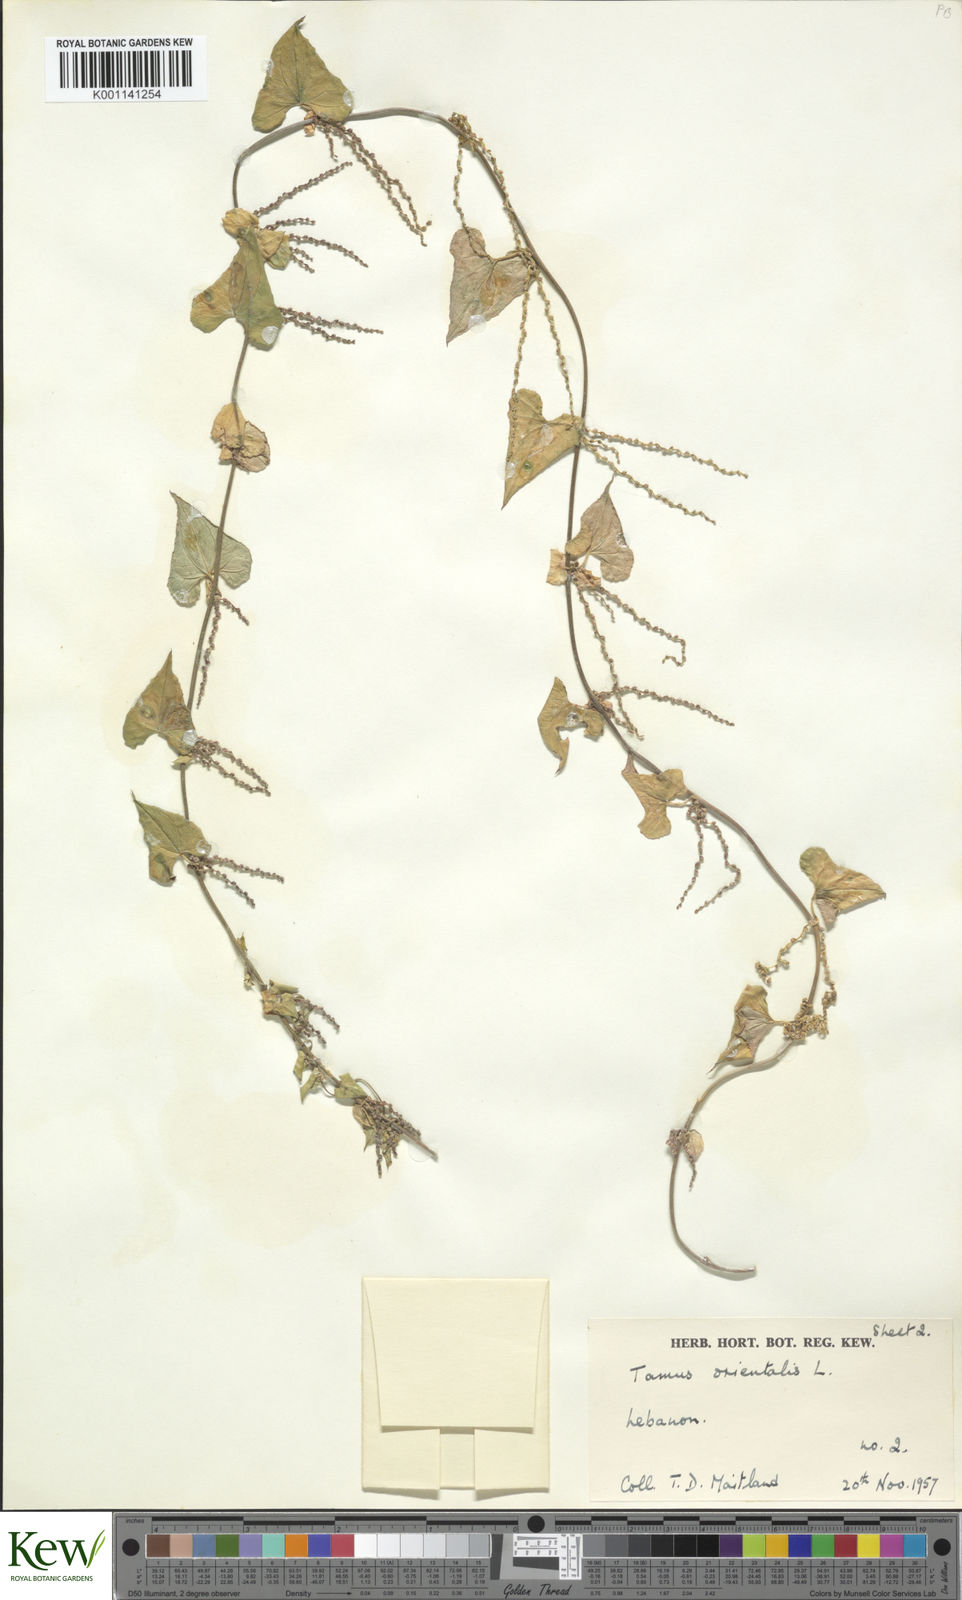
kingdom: Plantae
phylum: Tracheophyta
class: Liliopsida
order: Dioscoreales
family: Dioscoreaceae
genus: Dioscorea
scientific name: Dioscorea
